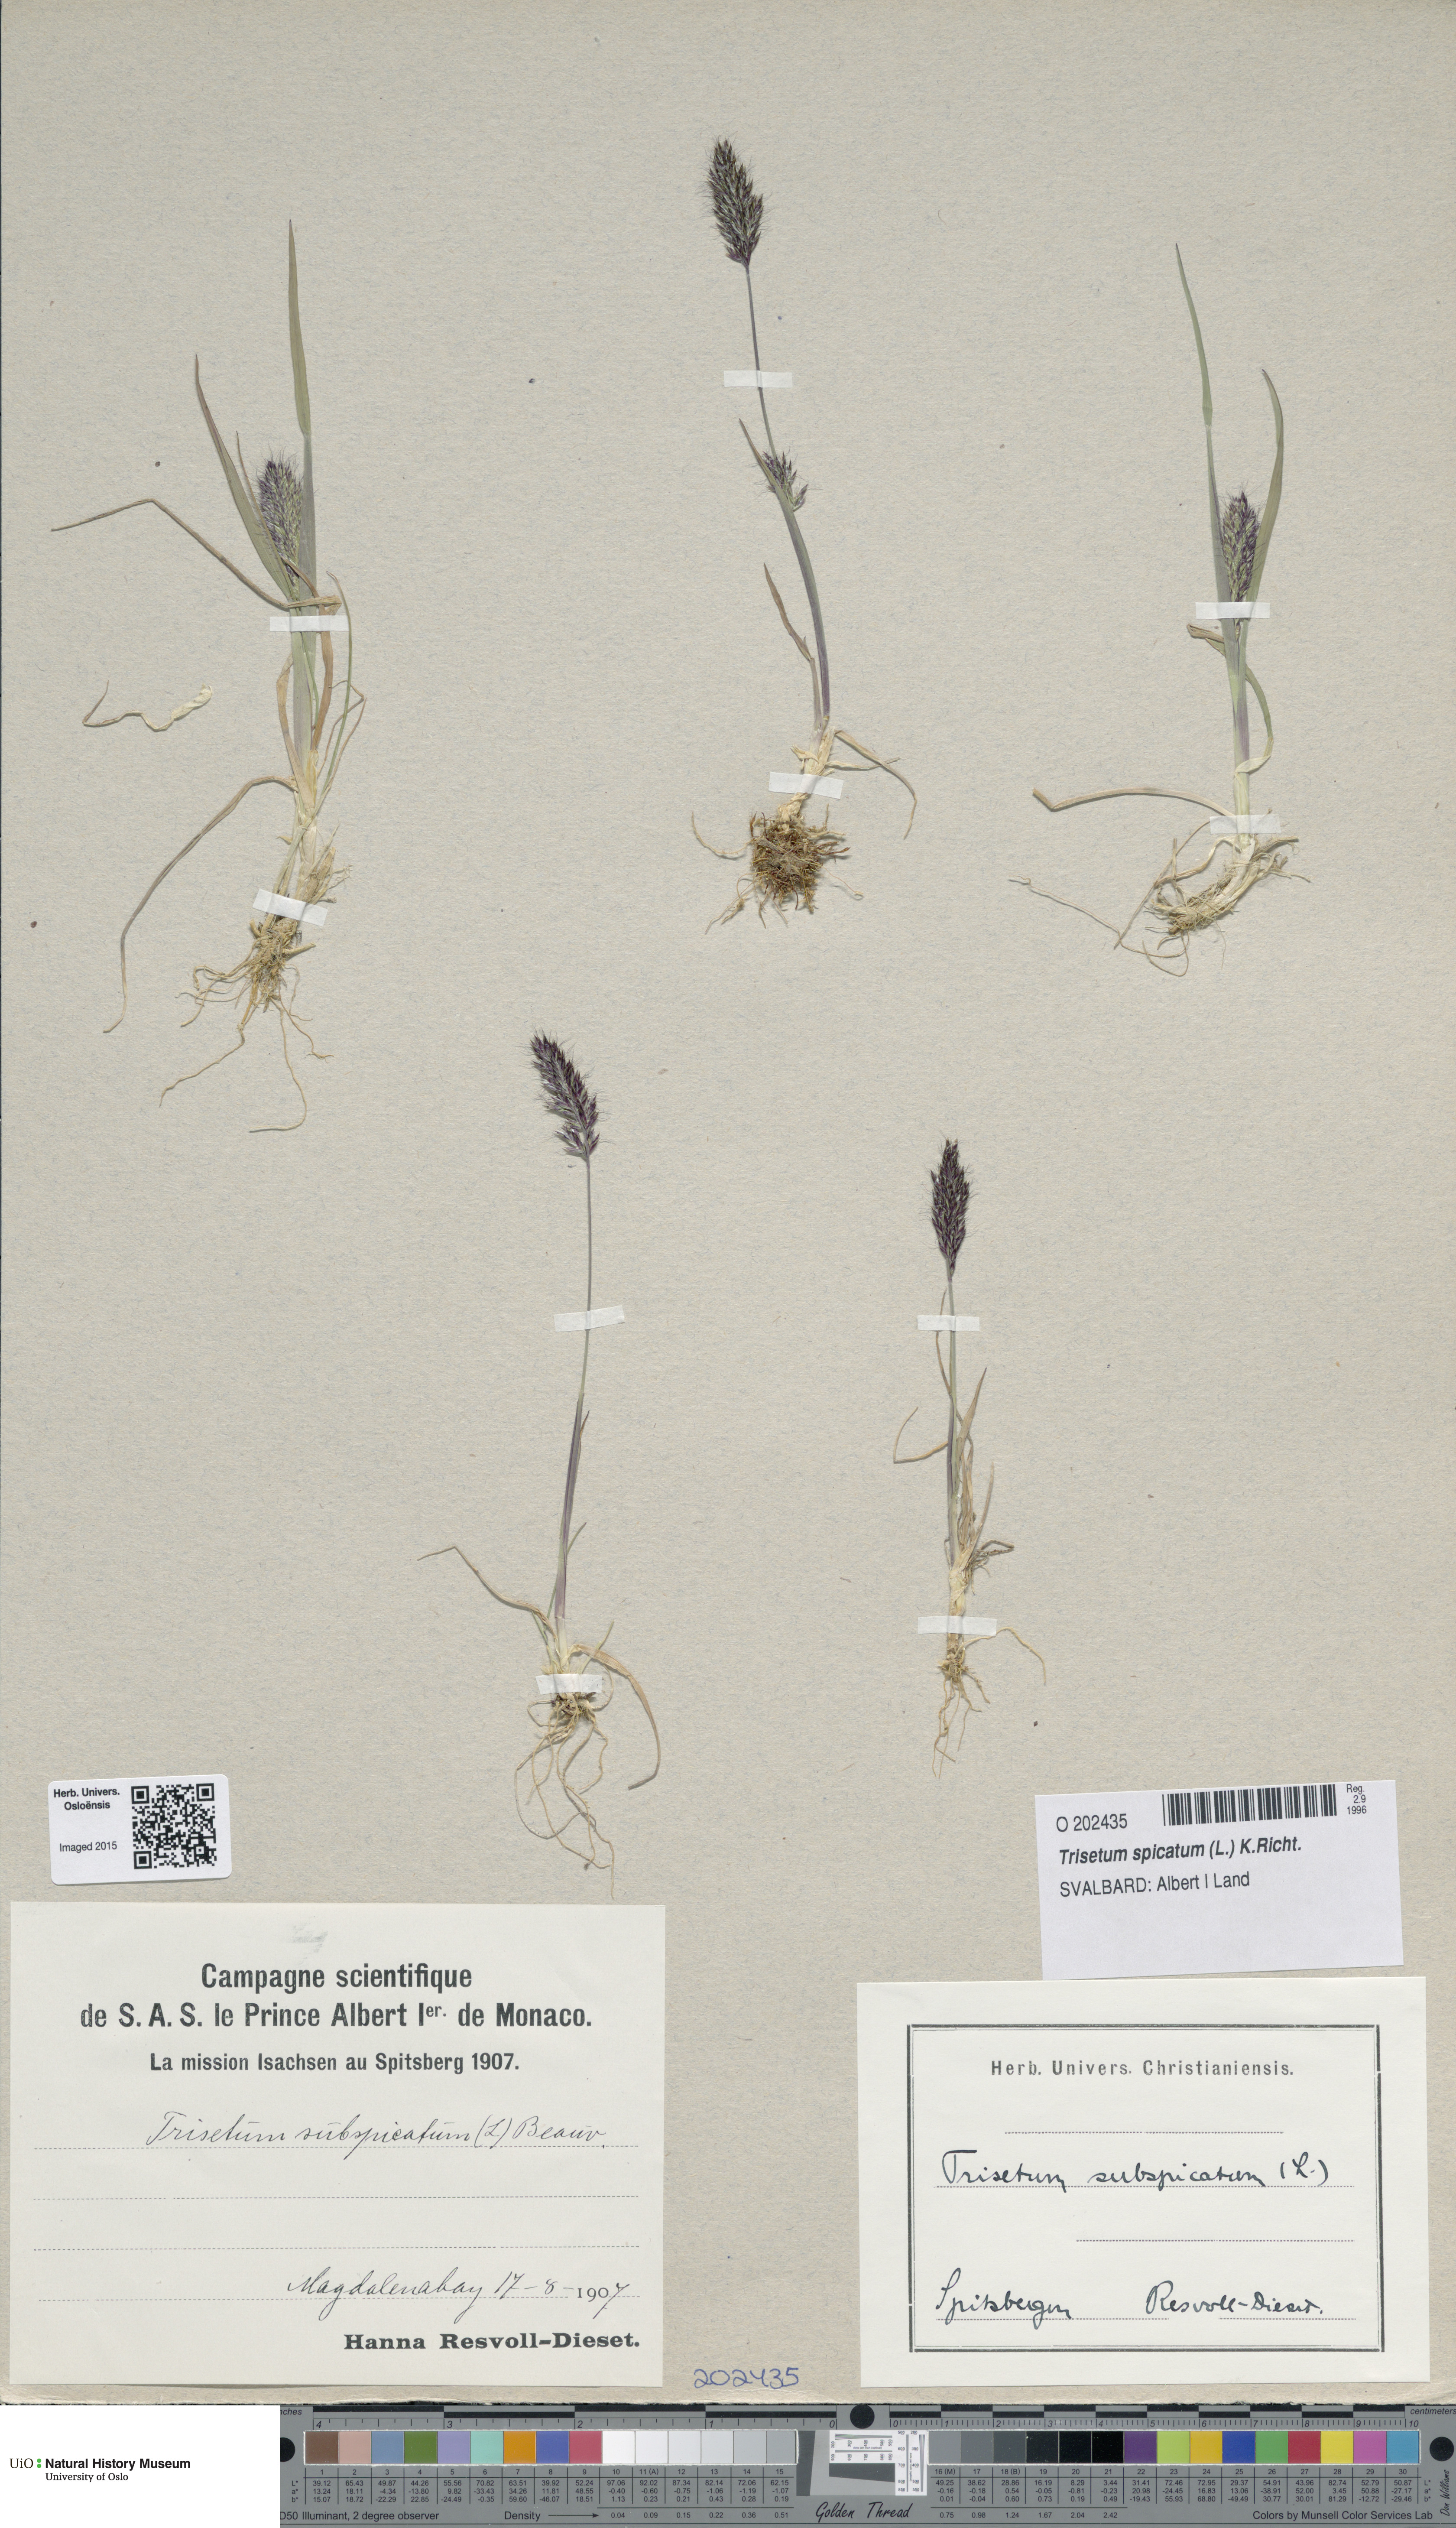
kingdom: Plantae
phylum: Tracheophyta
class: Liliopsida
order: Poales
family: Poaceae
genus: Koeleria
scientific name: Koeleria spicata
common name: Mountain trisetum
